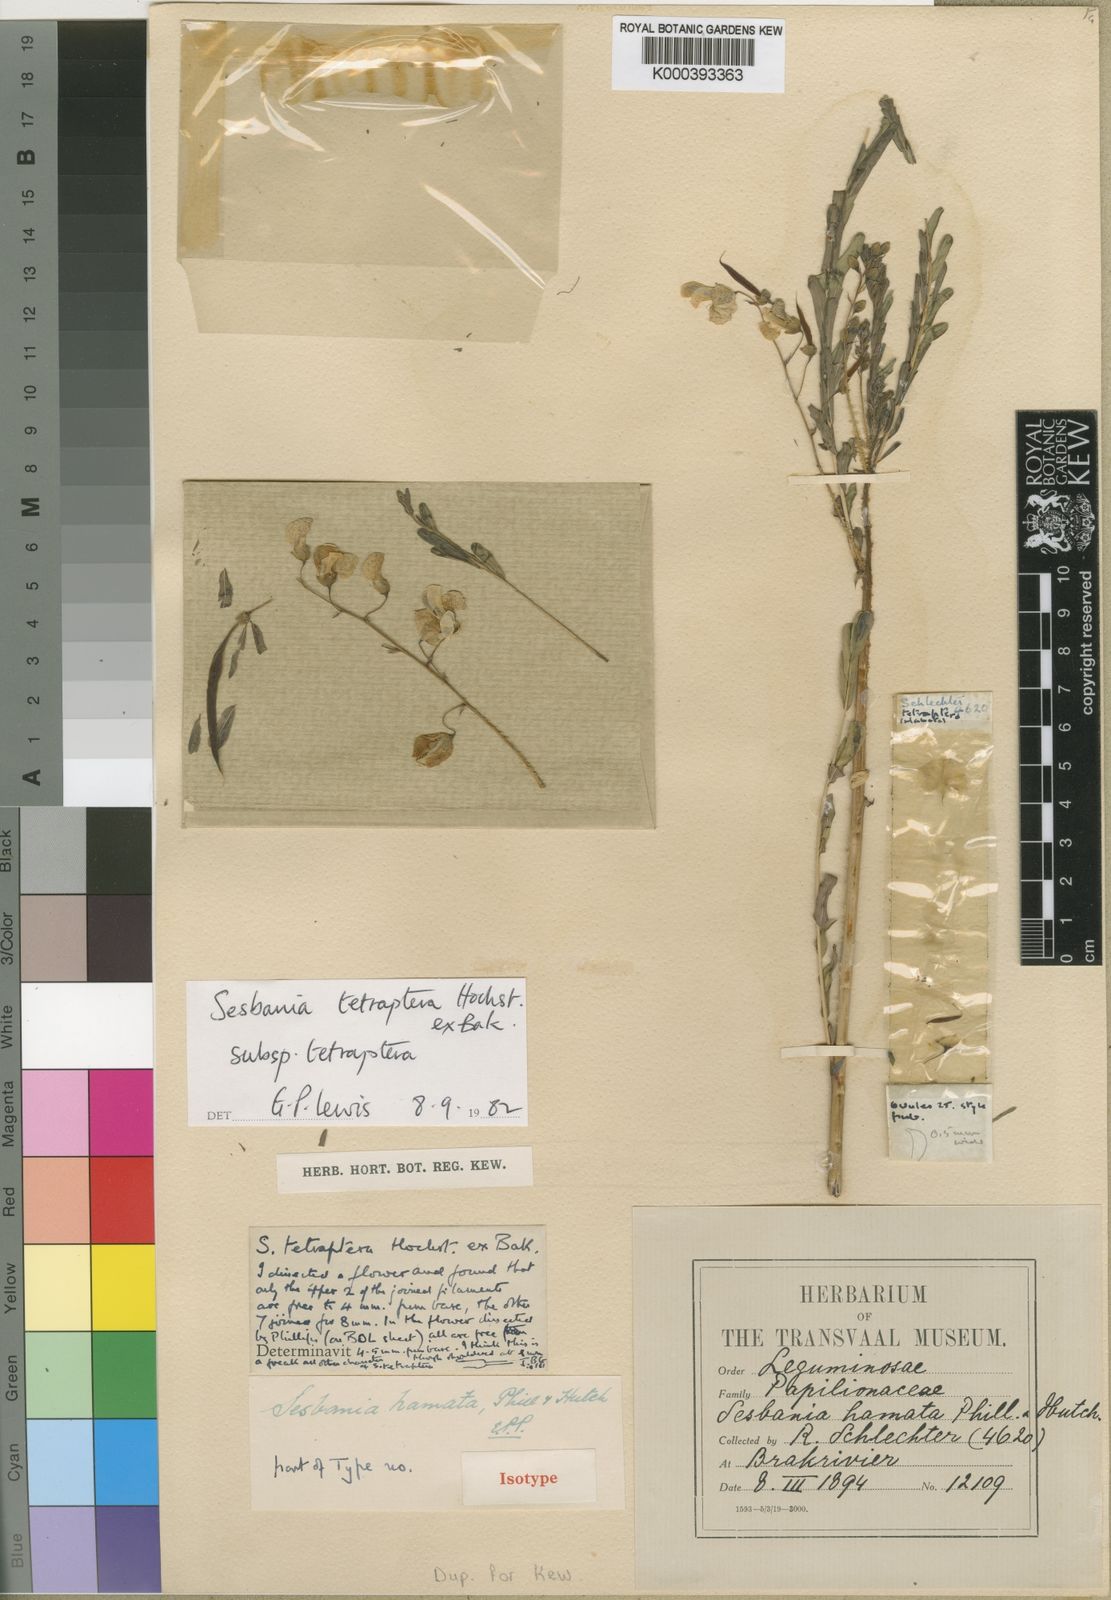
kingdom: Plantae
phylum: Tracheophyta
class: Magnoliopsida
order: Fabales
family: Fabaceae
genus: Sesbania
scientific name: Sesbania tetraptera
